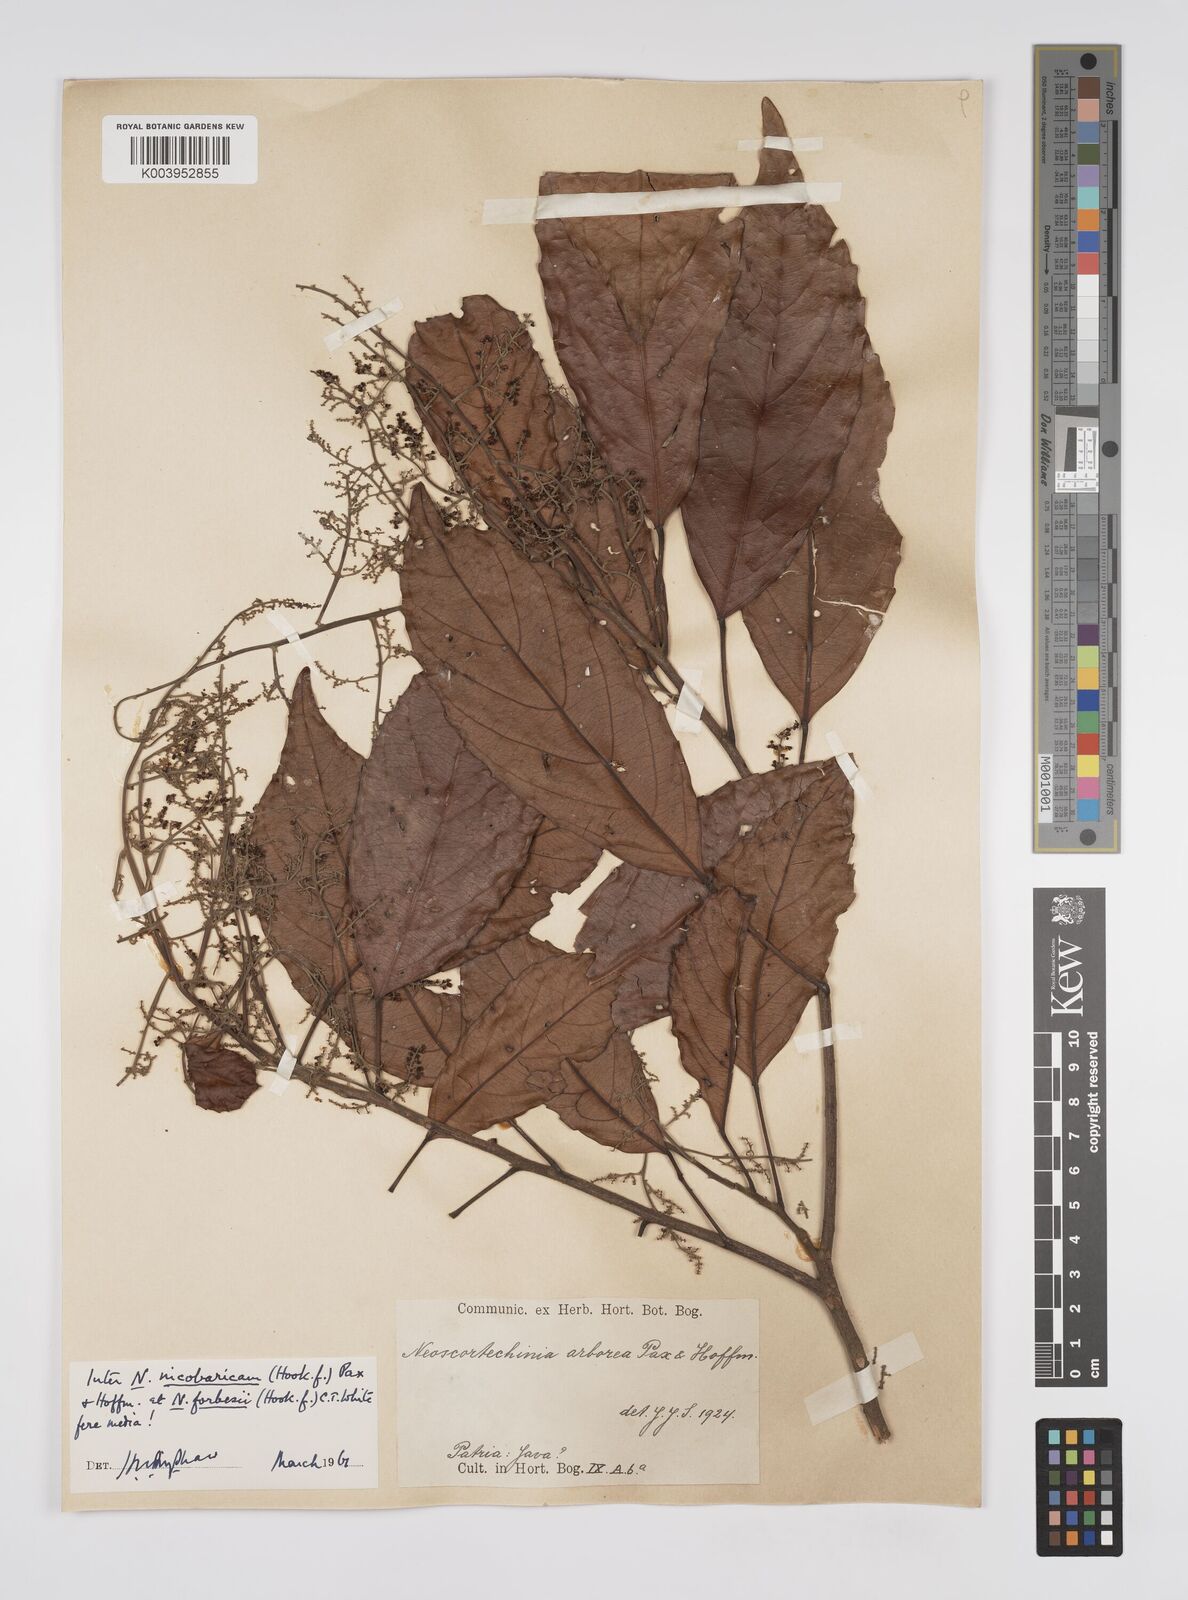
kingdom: Plantae
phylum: Tracheophyta
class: Magnoliopsida
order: Malpighiales
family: Euphorbiaceae
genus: Neoscortechinia
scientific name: Neoscortechinia nicobarica
